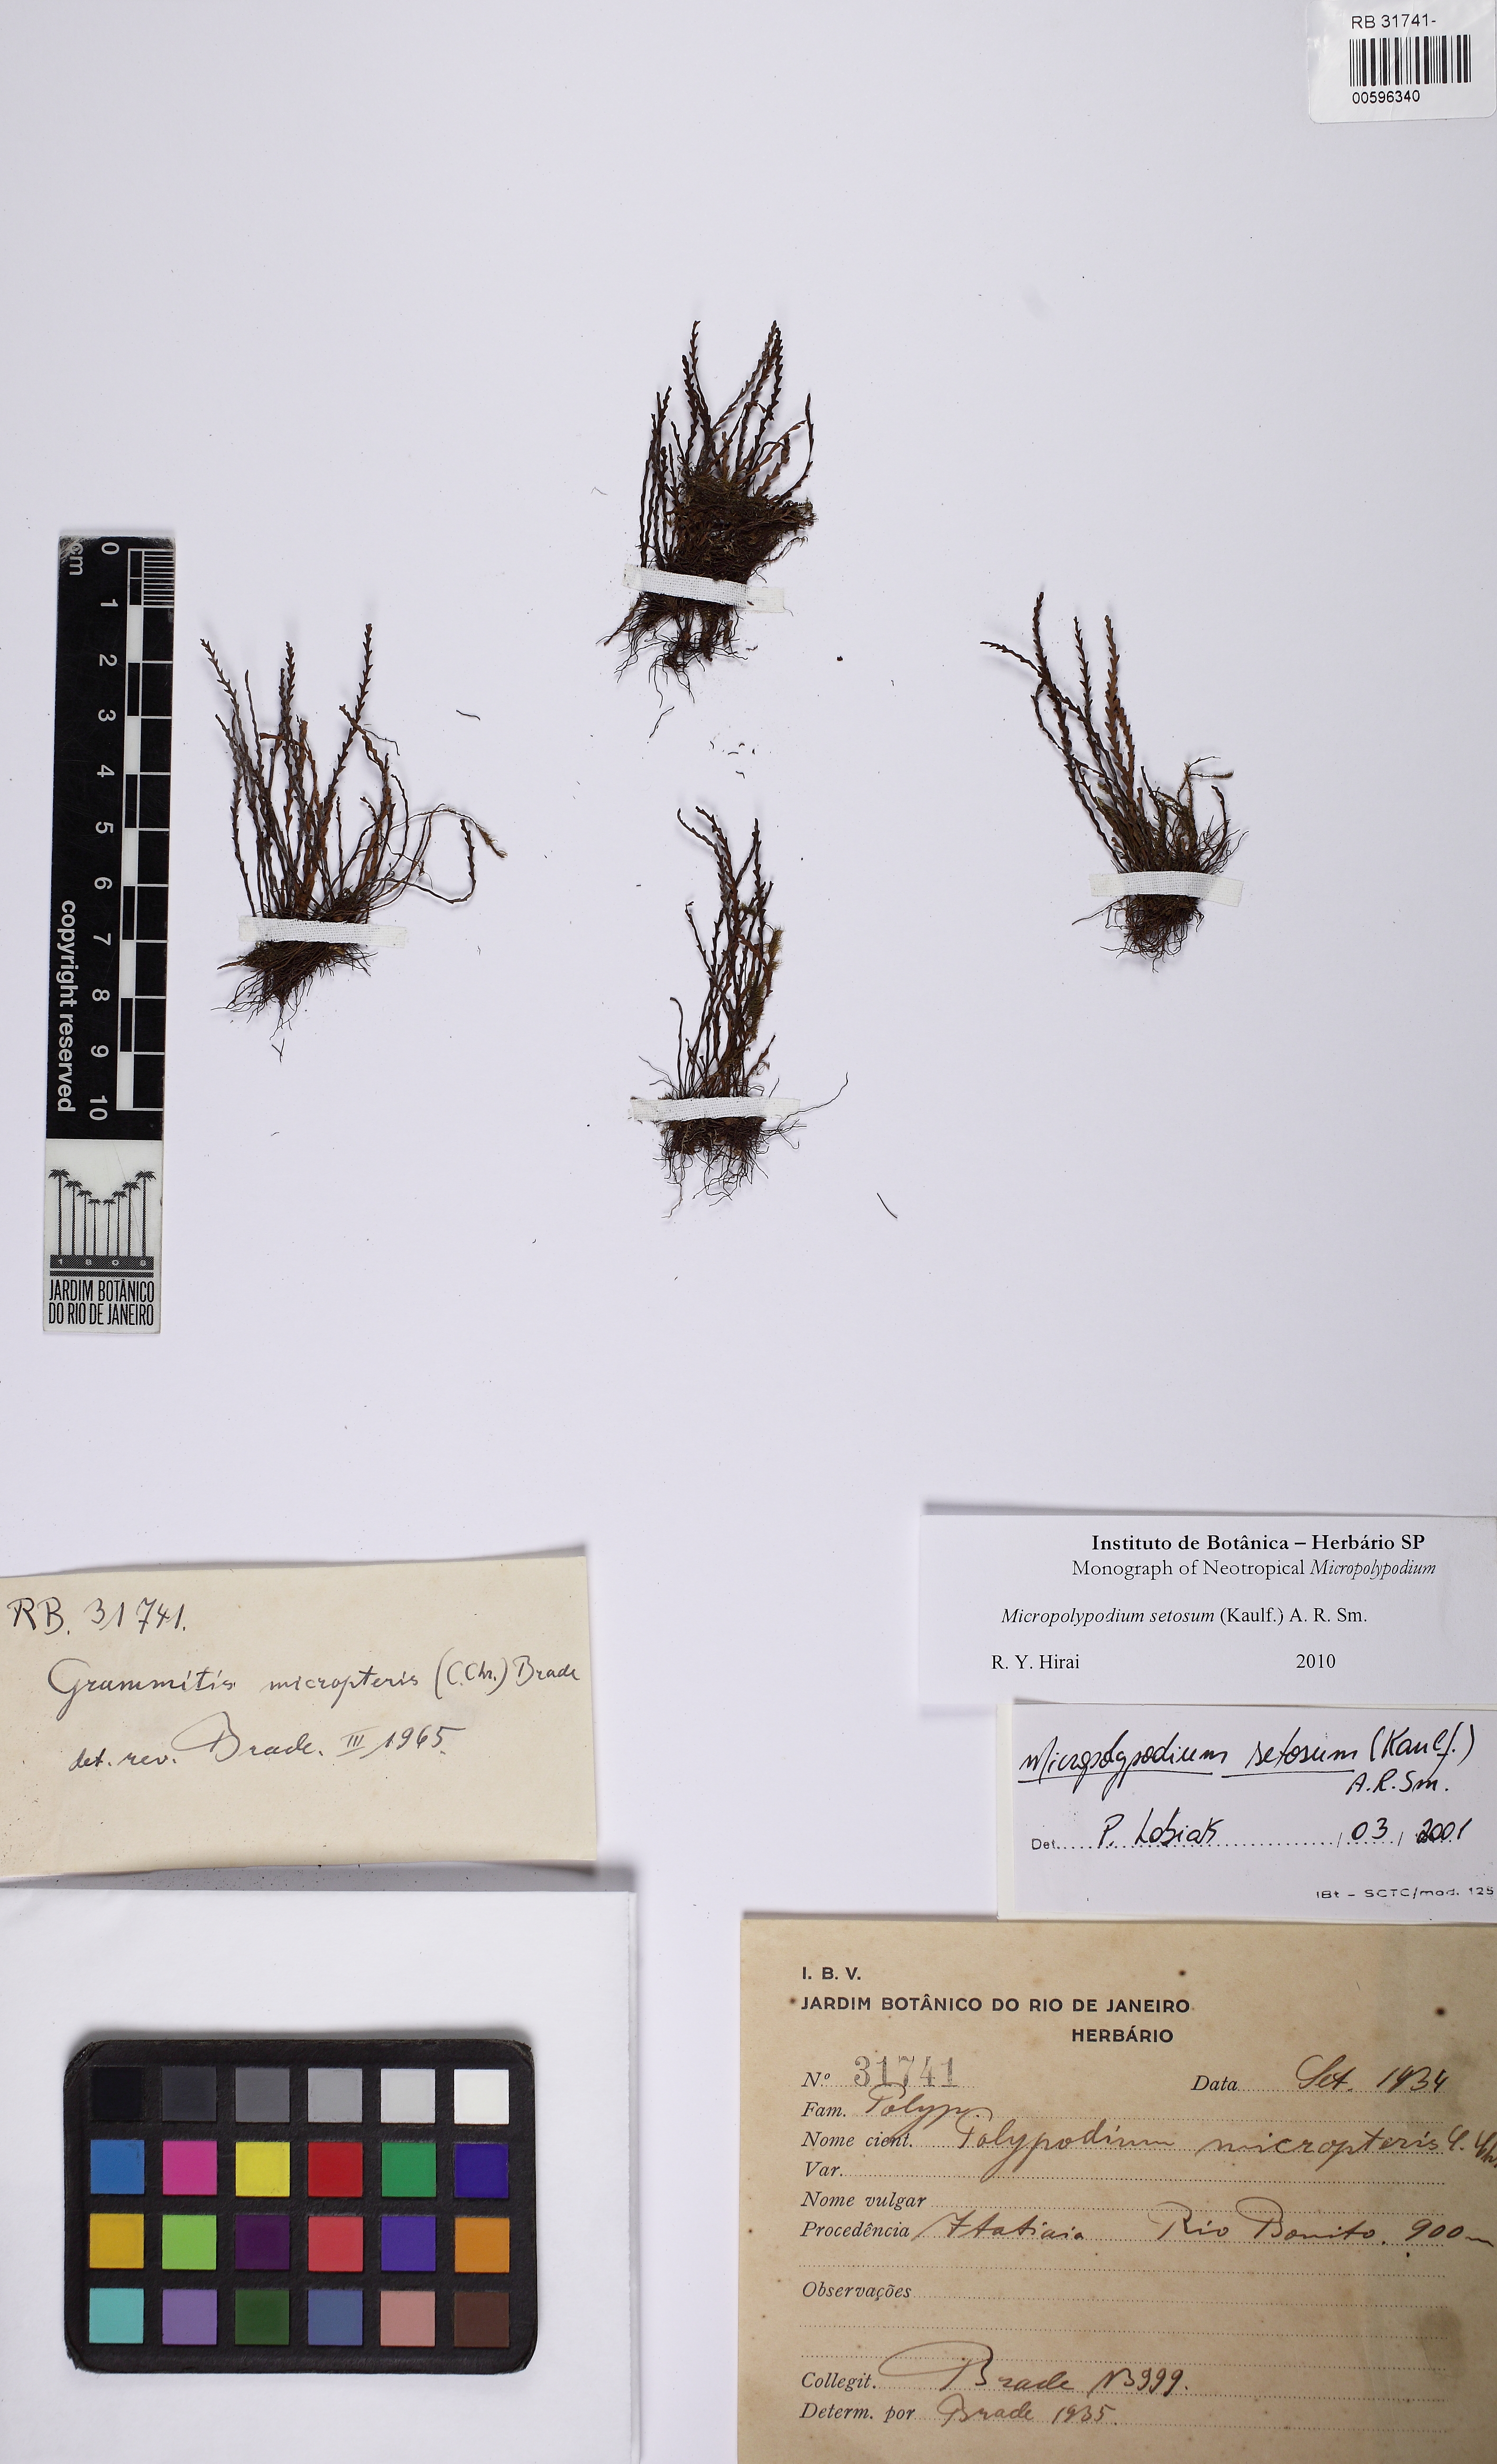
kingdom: Plantae
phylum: Tracheophyta
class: Polypodiopsida
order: Polypodiales
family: Polypodiaceae
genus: Moranopteris
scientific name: Moranopteris setosa
